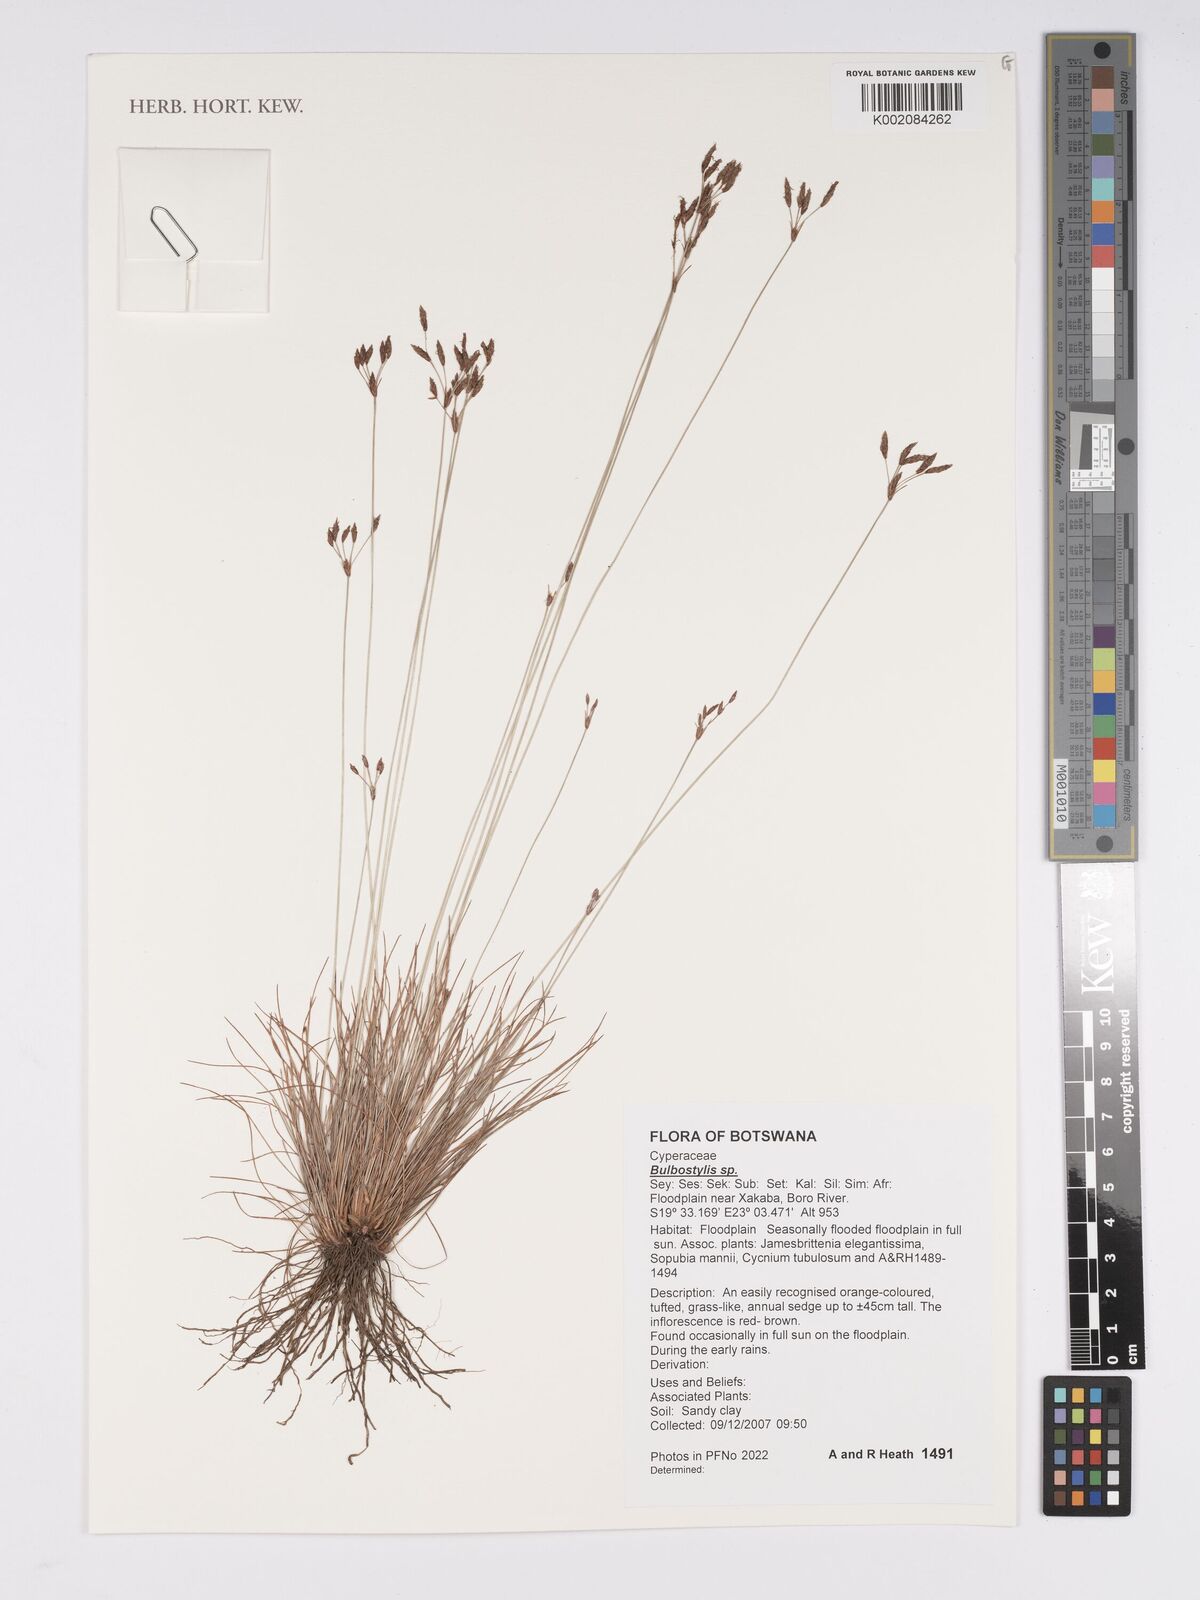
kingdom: Plantae
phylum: Tracheophyta
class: Liliopsida
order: Poales
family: Cyperaceae
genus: Bulbostylis
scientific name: Bulbostylis
